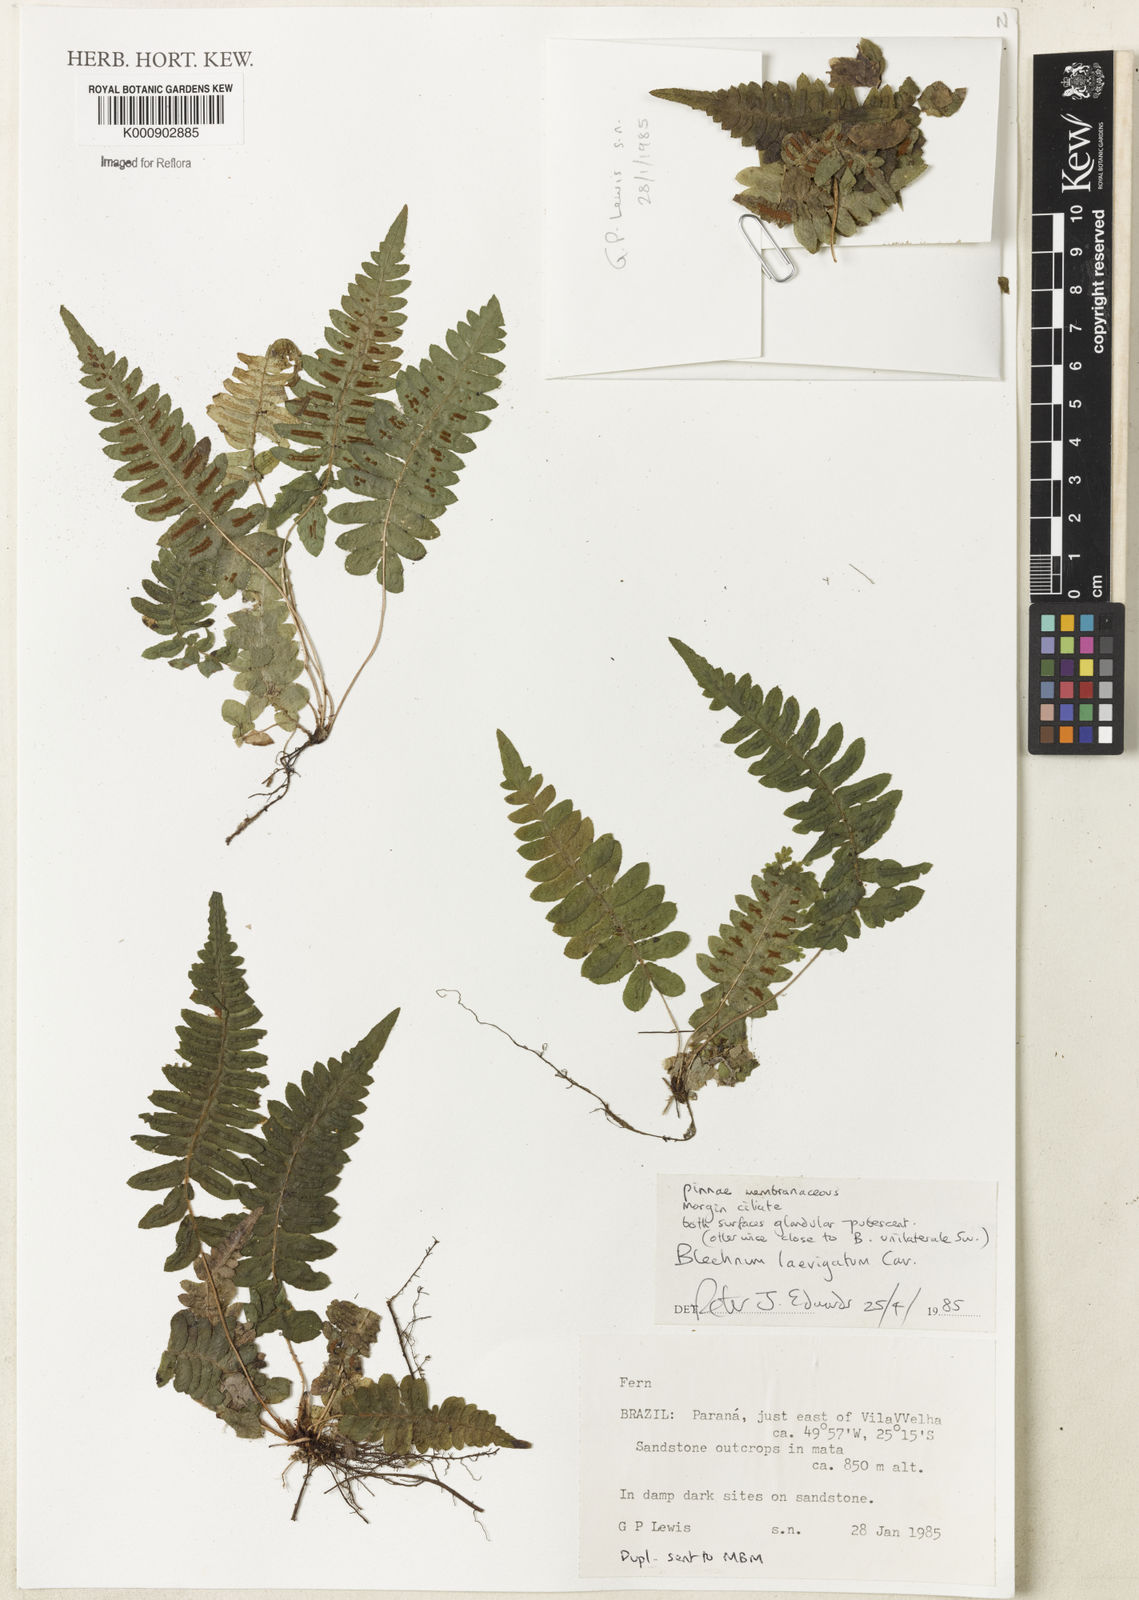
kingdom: Plantae
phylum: Tracheophyta
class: Polypodiopsida
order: Polypodiales
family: Blechnaceae
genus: Blechnum
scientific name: Blechnum laevigatum
